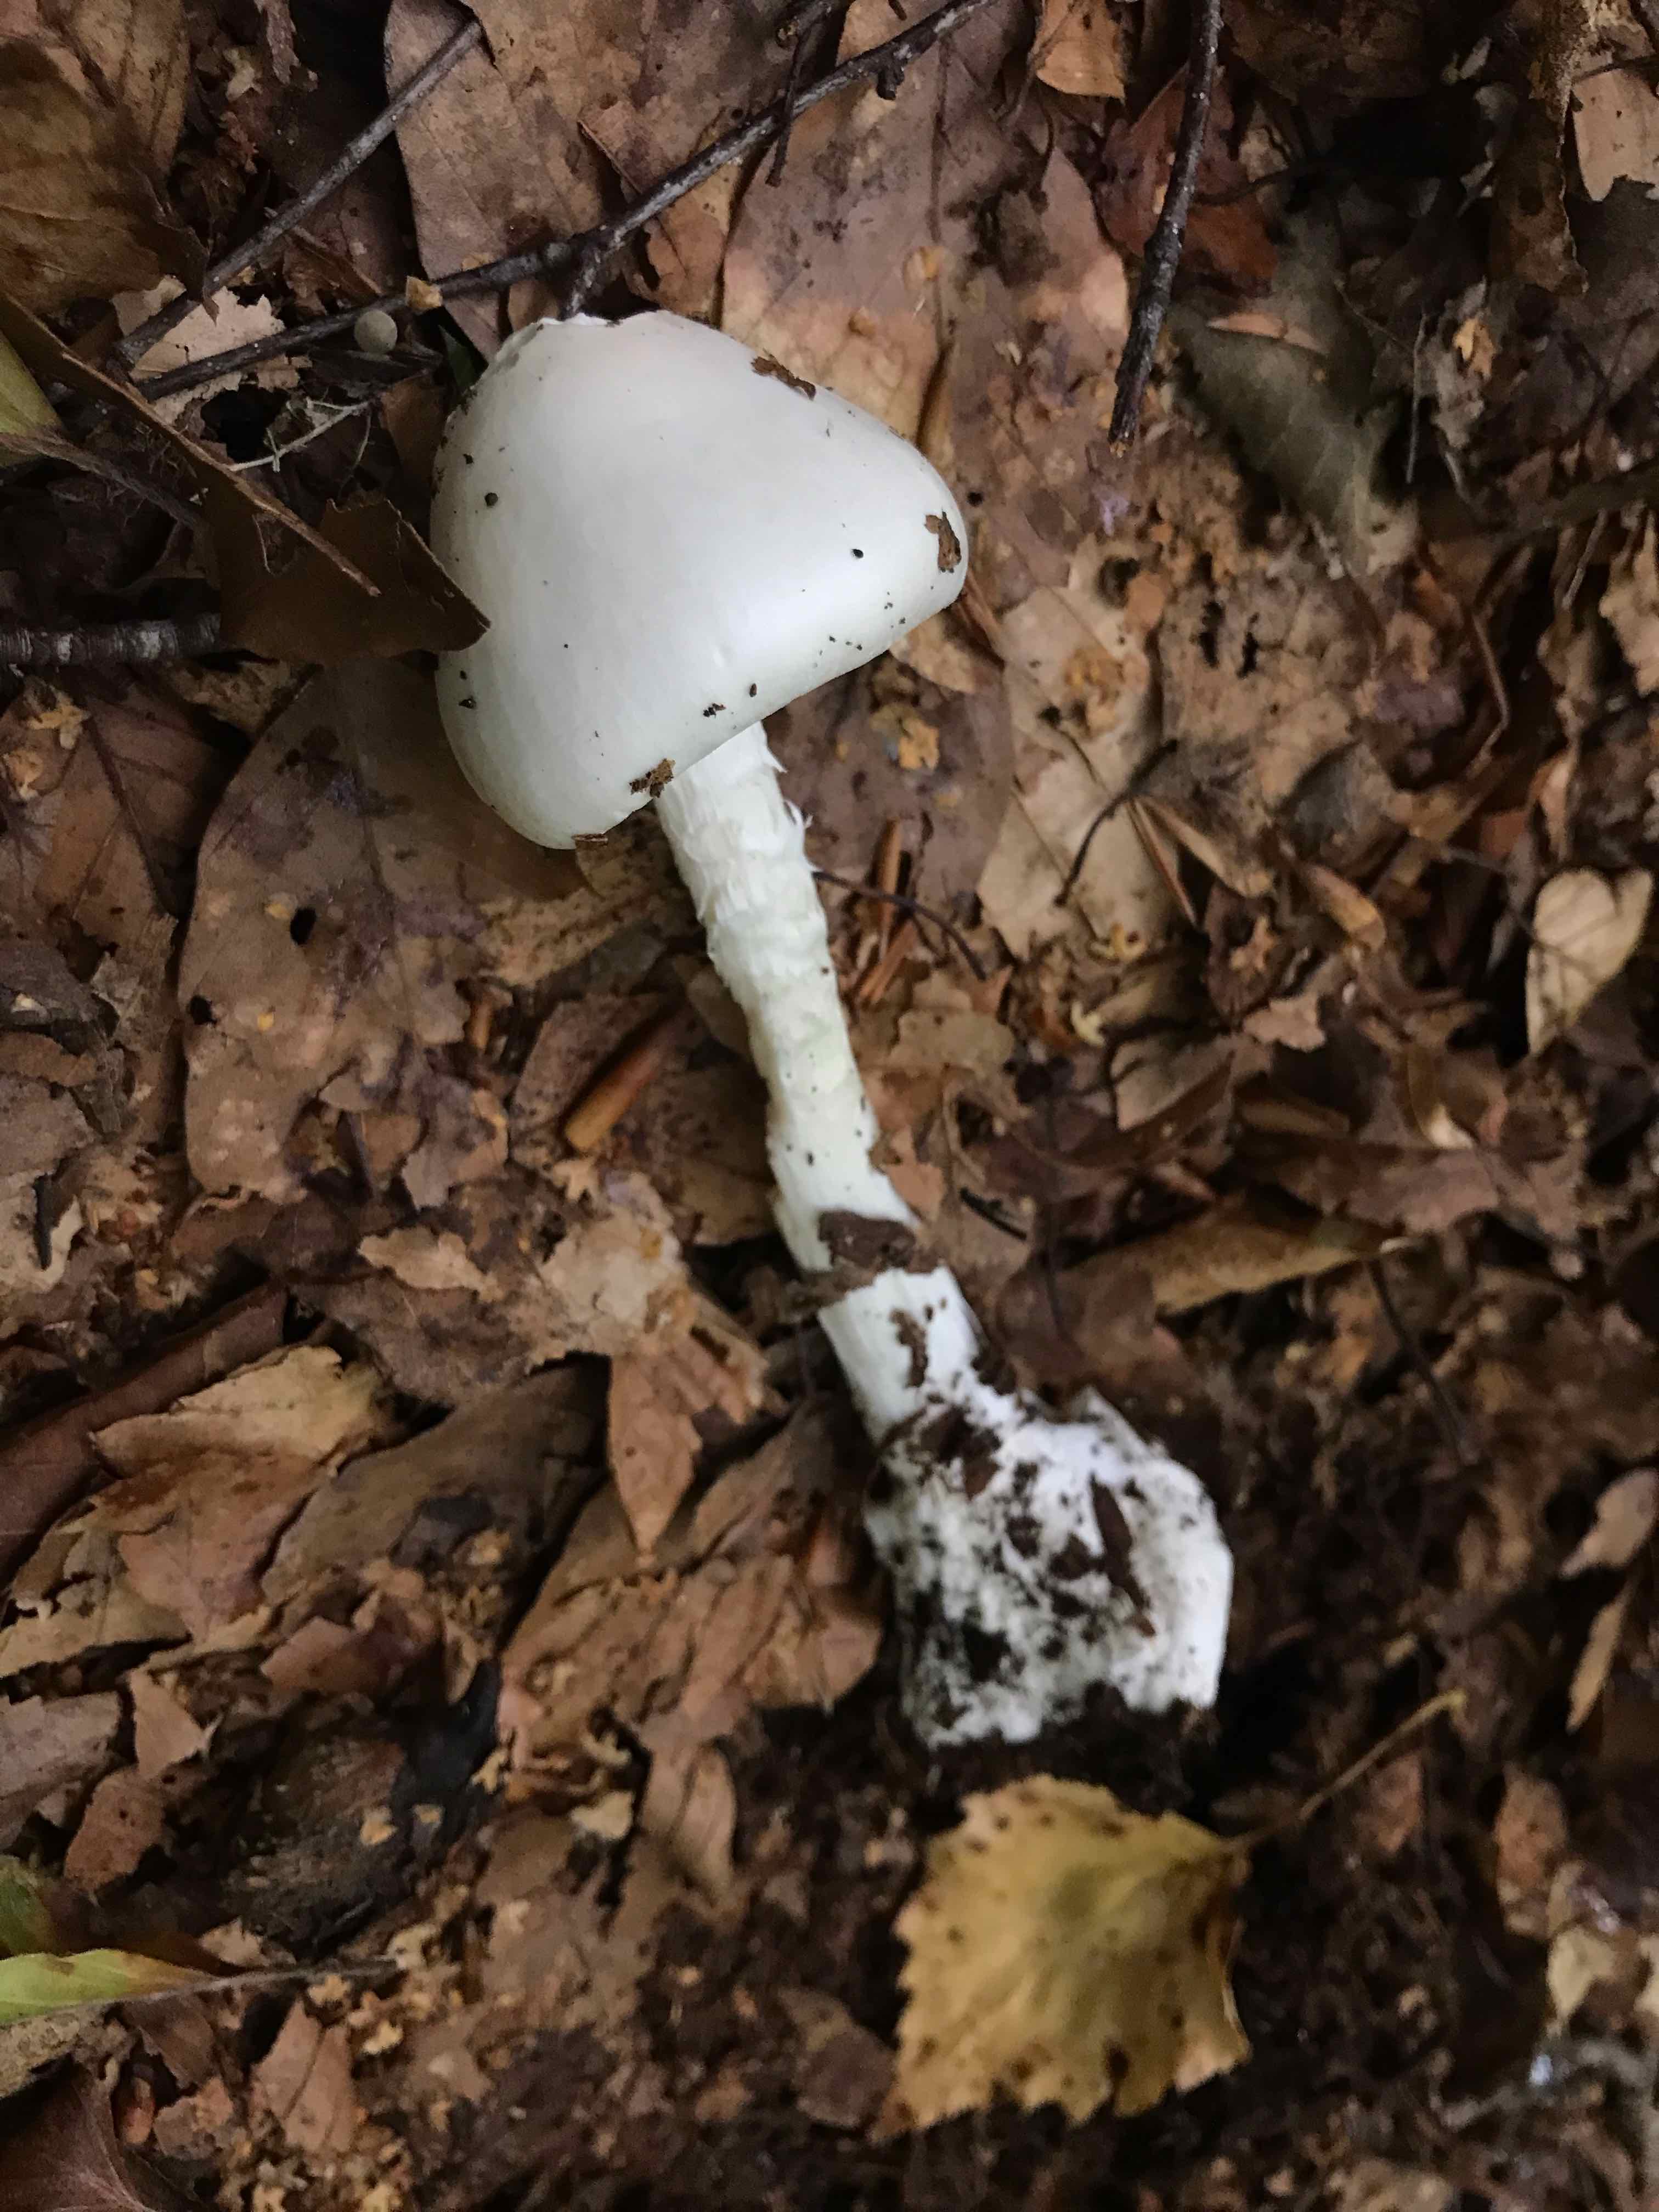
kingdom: Fungi
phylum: Basidiomycota
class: Agaricomycetes
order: Agaricales
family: Amanitaceae
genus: Amanita
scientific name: Amanita virosa
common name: snehvid fluesvamp
